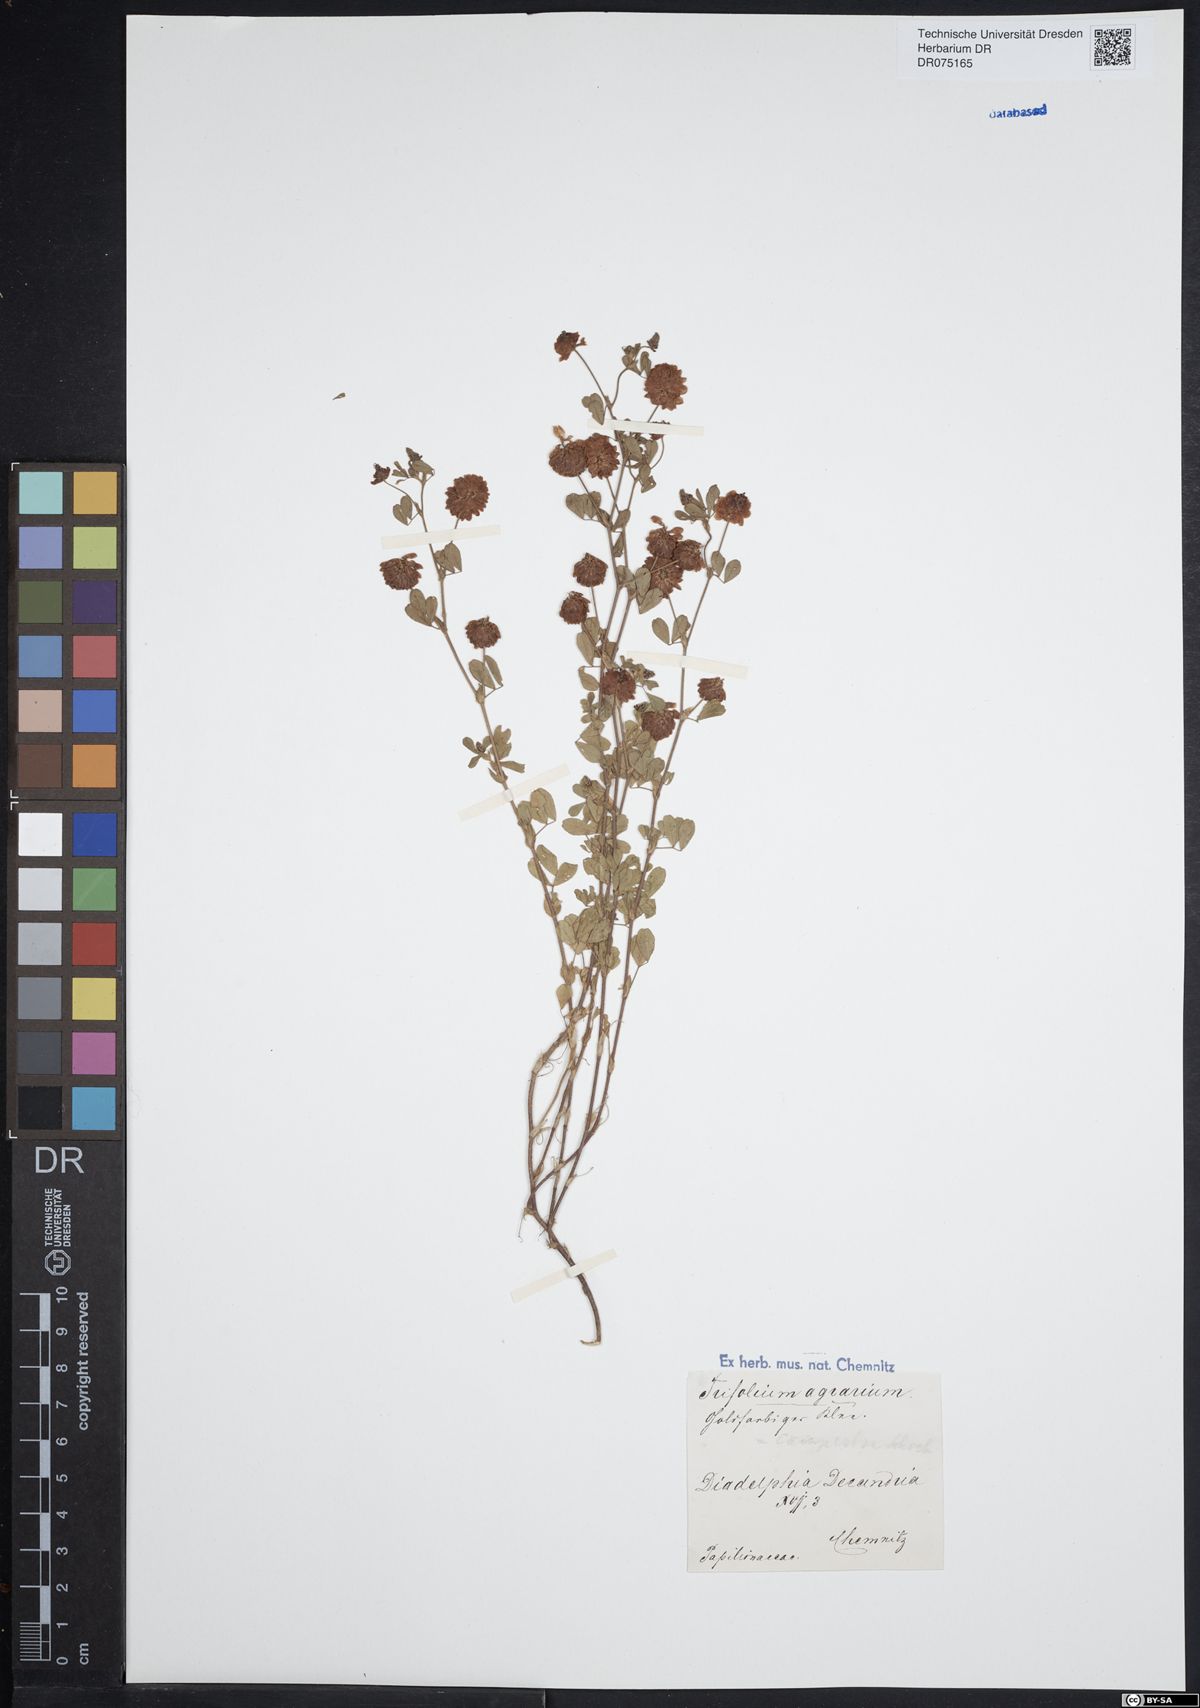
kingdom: Plantae
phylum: Tracheophyta
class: Magnoliopsida
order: Fabales
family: Fabaceae
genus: Trifolium
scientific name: Trifolium campestre
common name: Field clover
